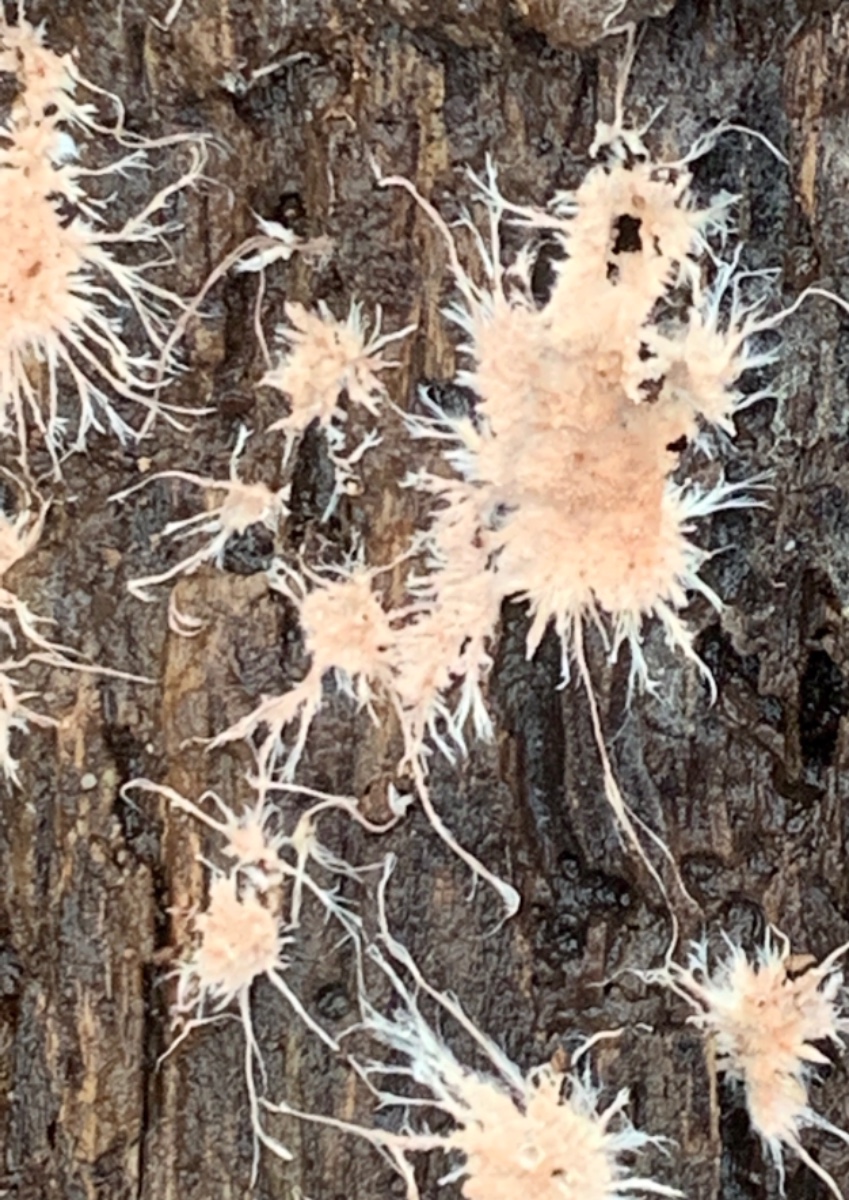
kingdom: Fungi
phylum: Basidiomycota
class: Agaricomycetes
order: Polyporales
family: Steccherinaceae
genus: Steccherinum
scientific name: Steccherinum fimbriatum
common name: trådet skønpig
